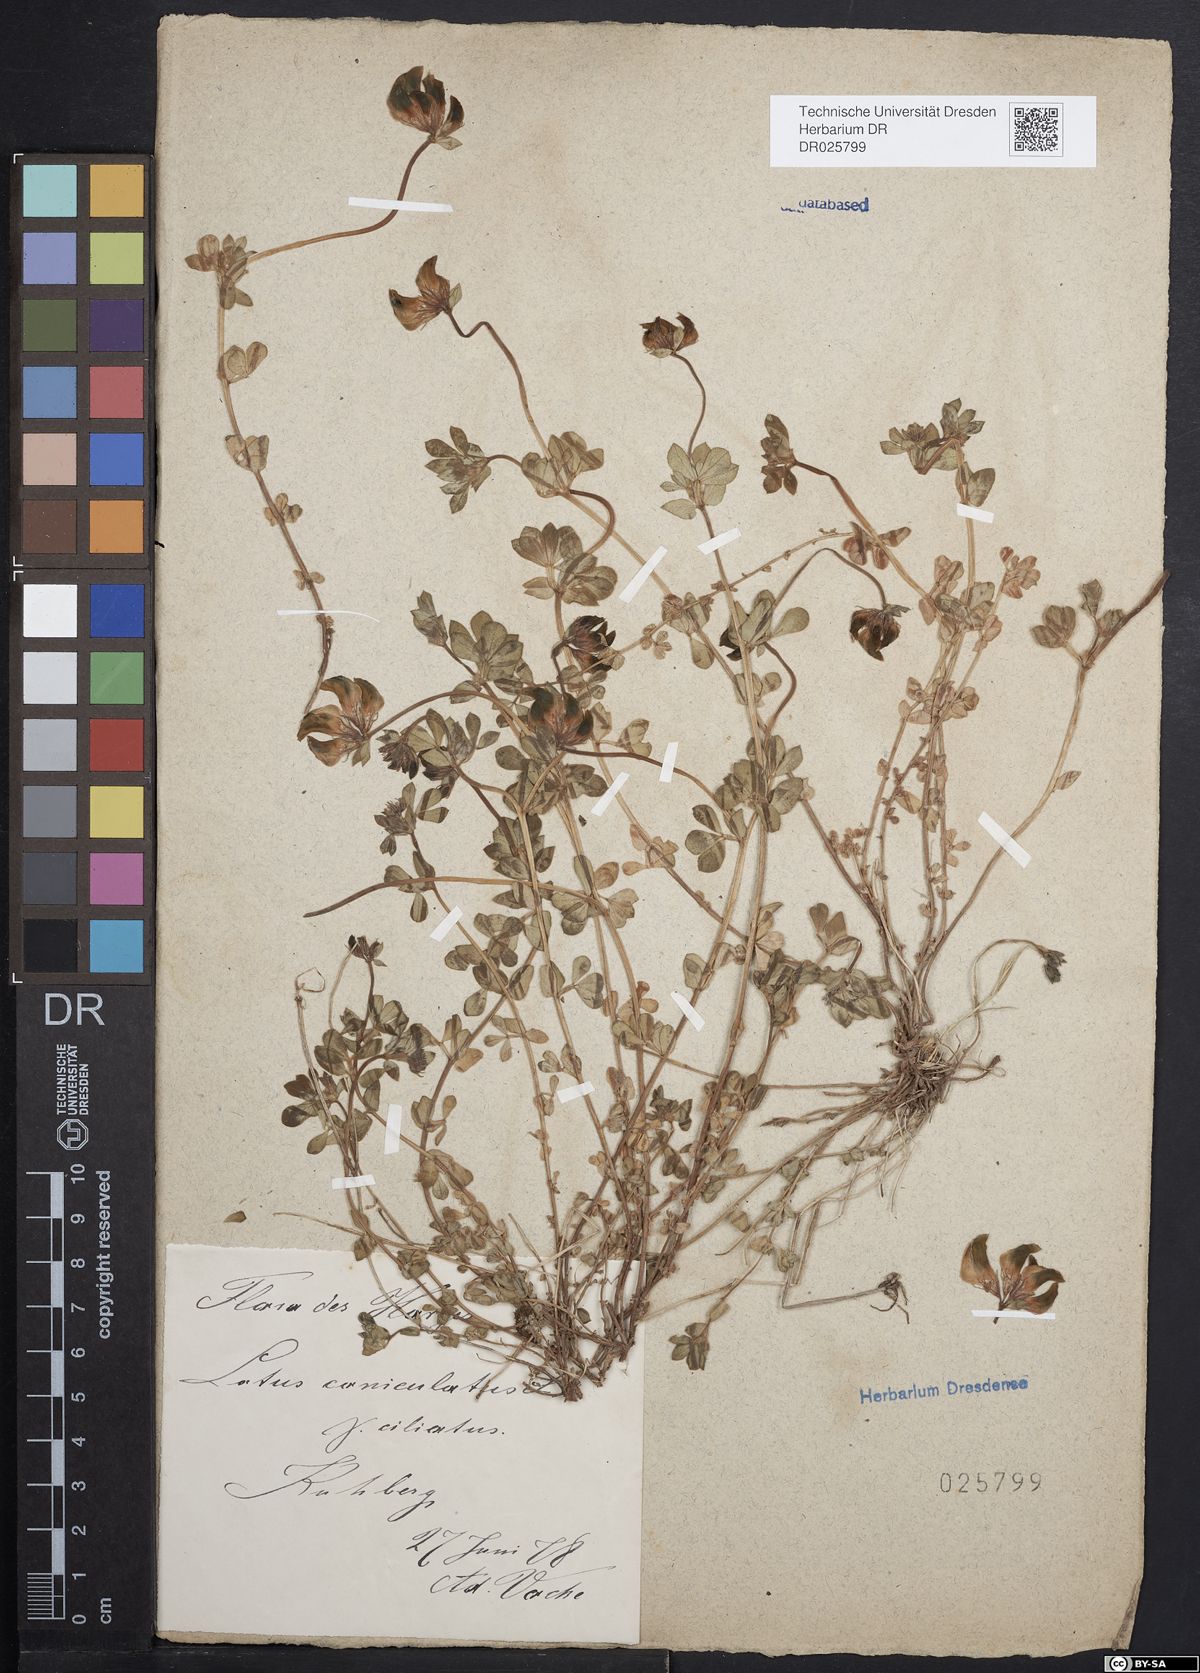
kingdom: Plantae
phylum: Tracheophyta
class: Magnoliopsida
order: Fabales
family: Fabaceae
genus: Lotus
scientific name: Lotus corniculatus
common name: Common bird's-foot-trefoil
